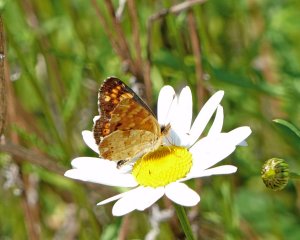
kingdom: Animalia
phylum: Arthropoda
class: Insecta
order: Lepidoptera
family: Nymphalidae
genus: Phyciodes
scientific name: Phyciodes tharos
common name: Field Crescent
